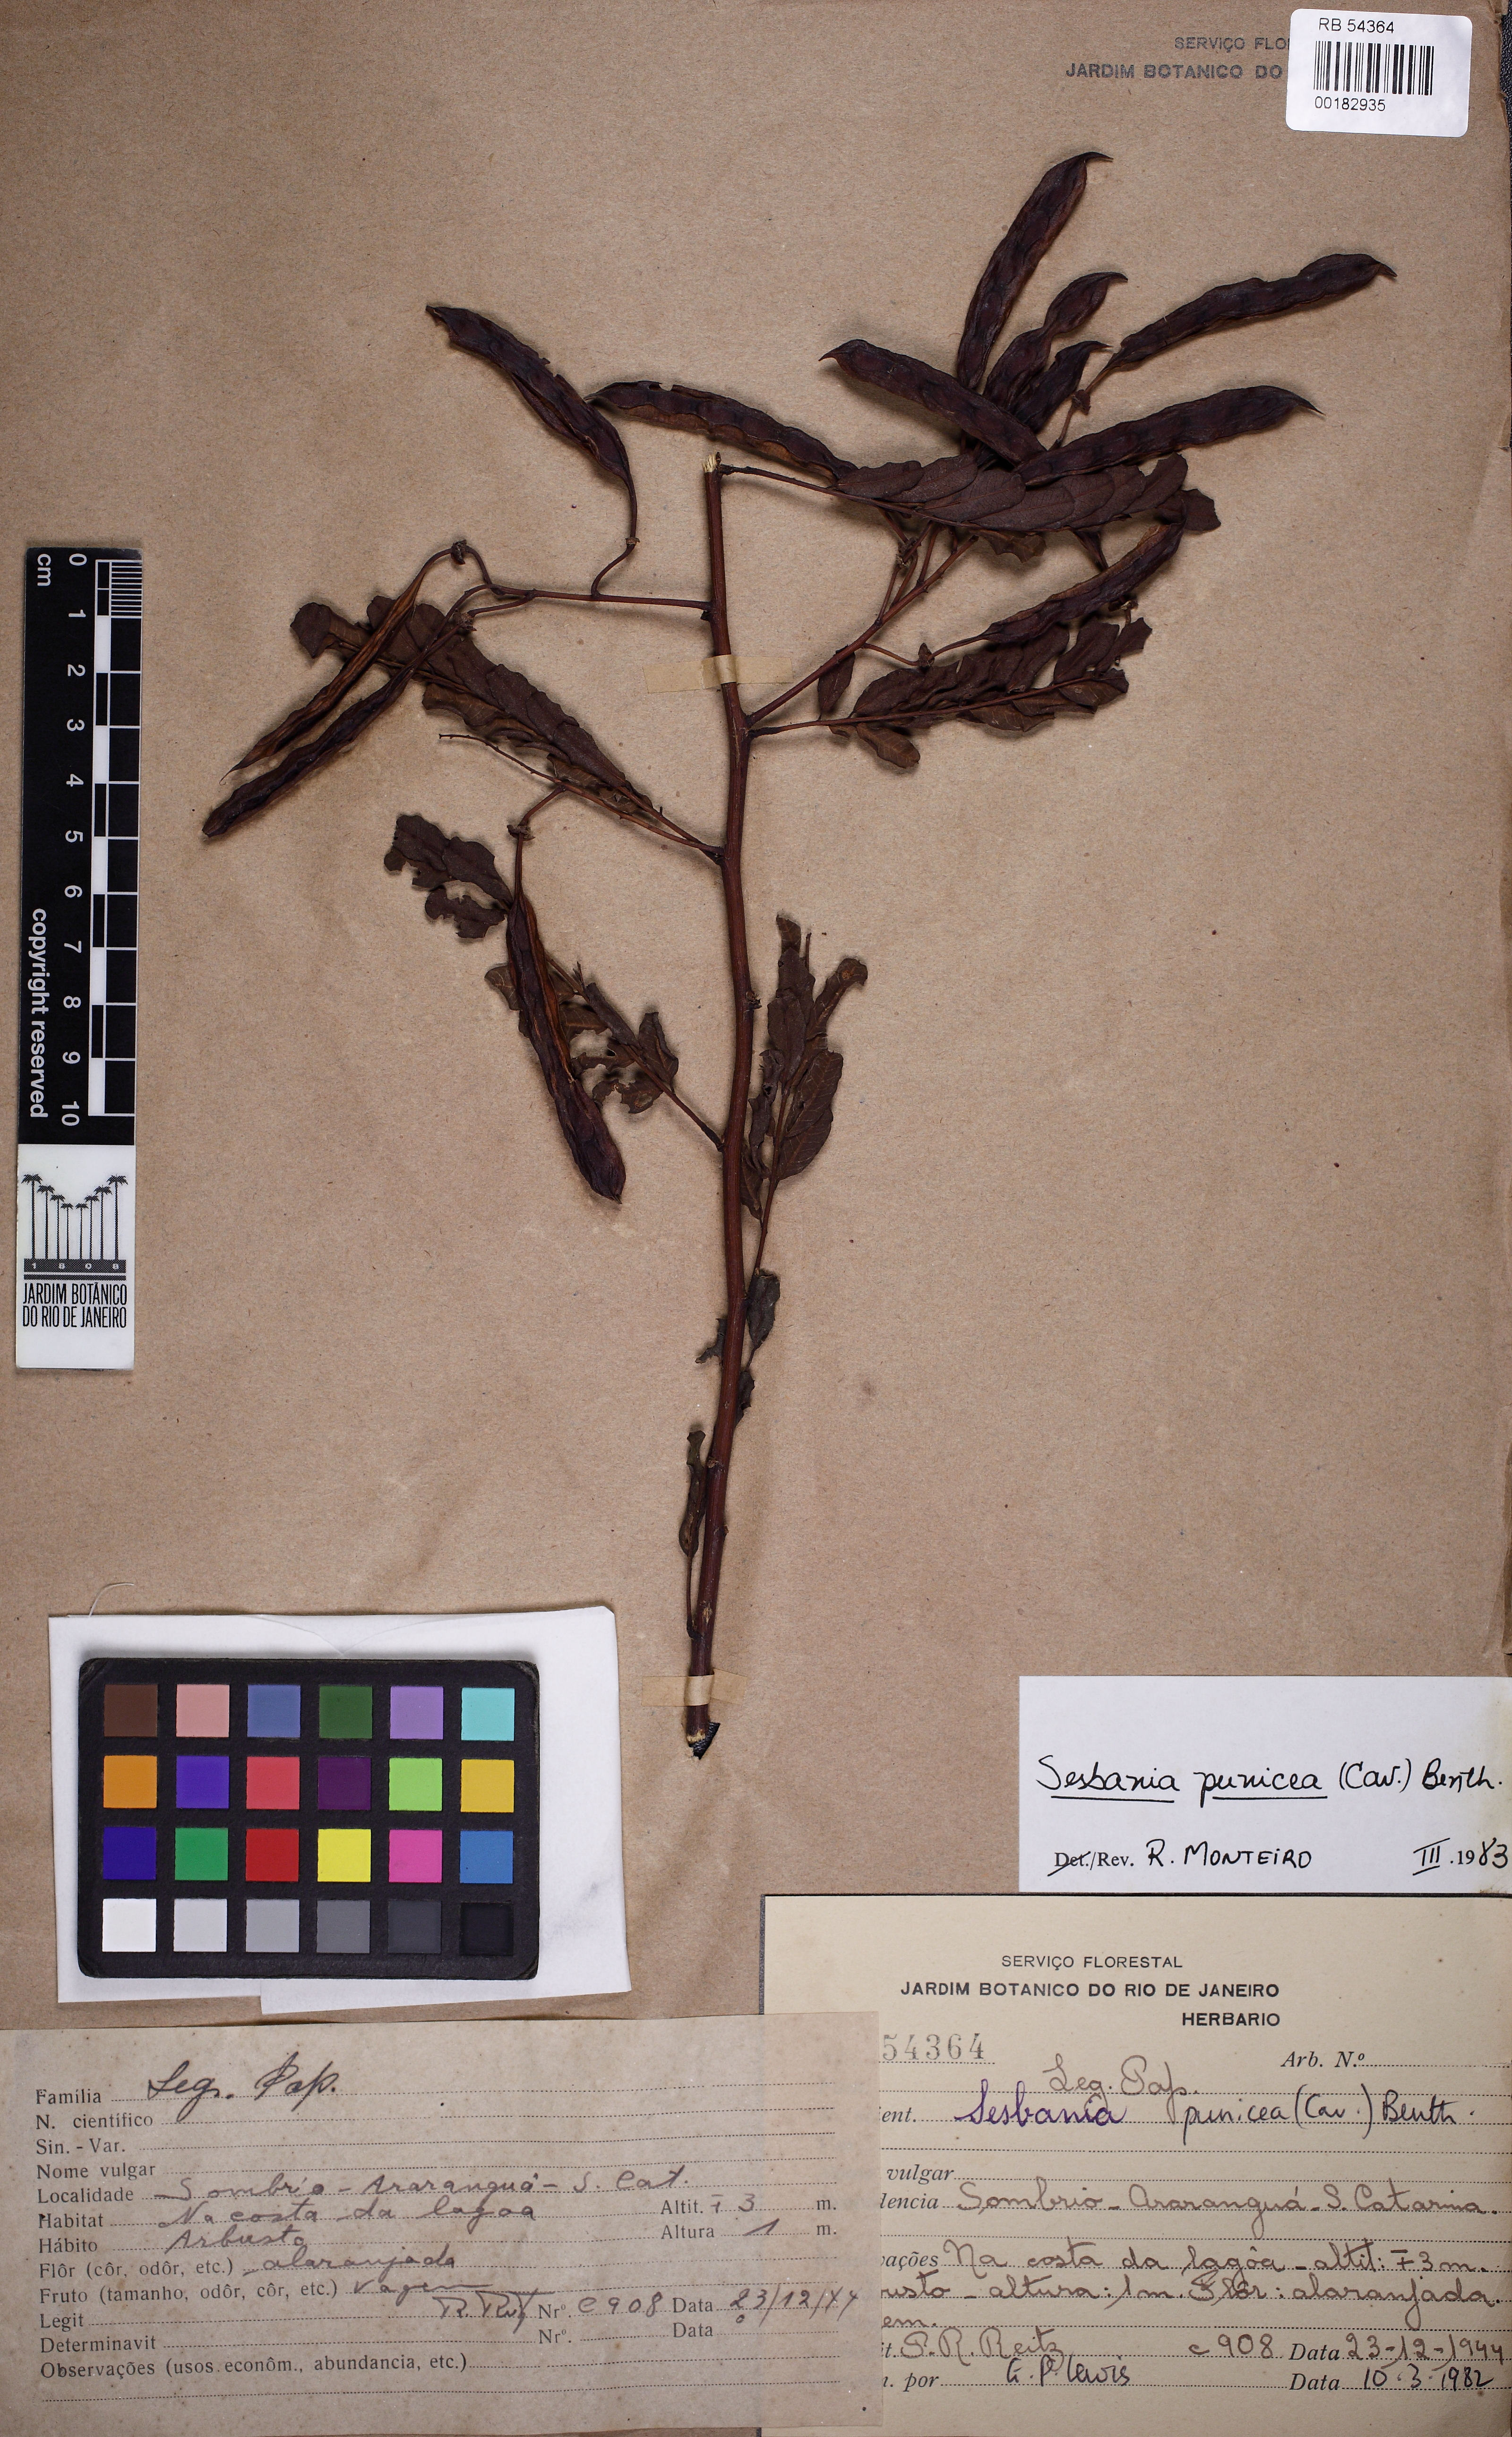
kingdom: Plantae
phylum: Tracheophyta
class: Magnoliopsida
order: Fabales
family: Fabaceae
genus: Sesbania
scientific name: Sesbania punicea
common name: Rattlebox
